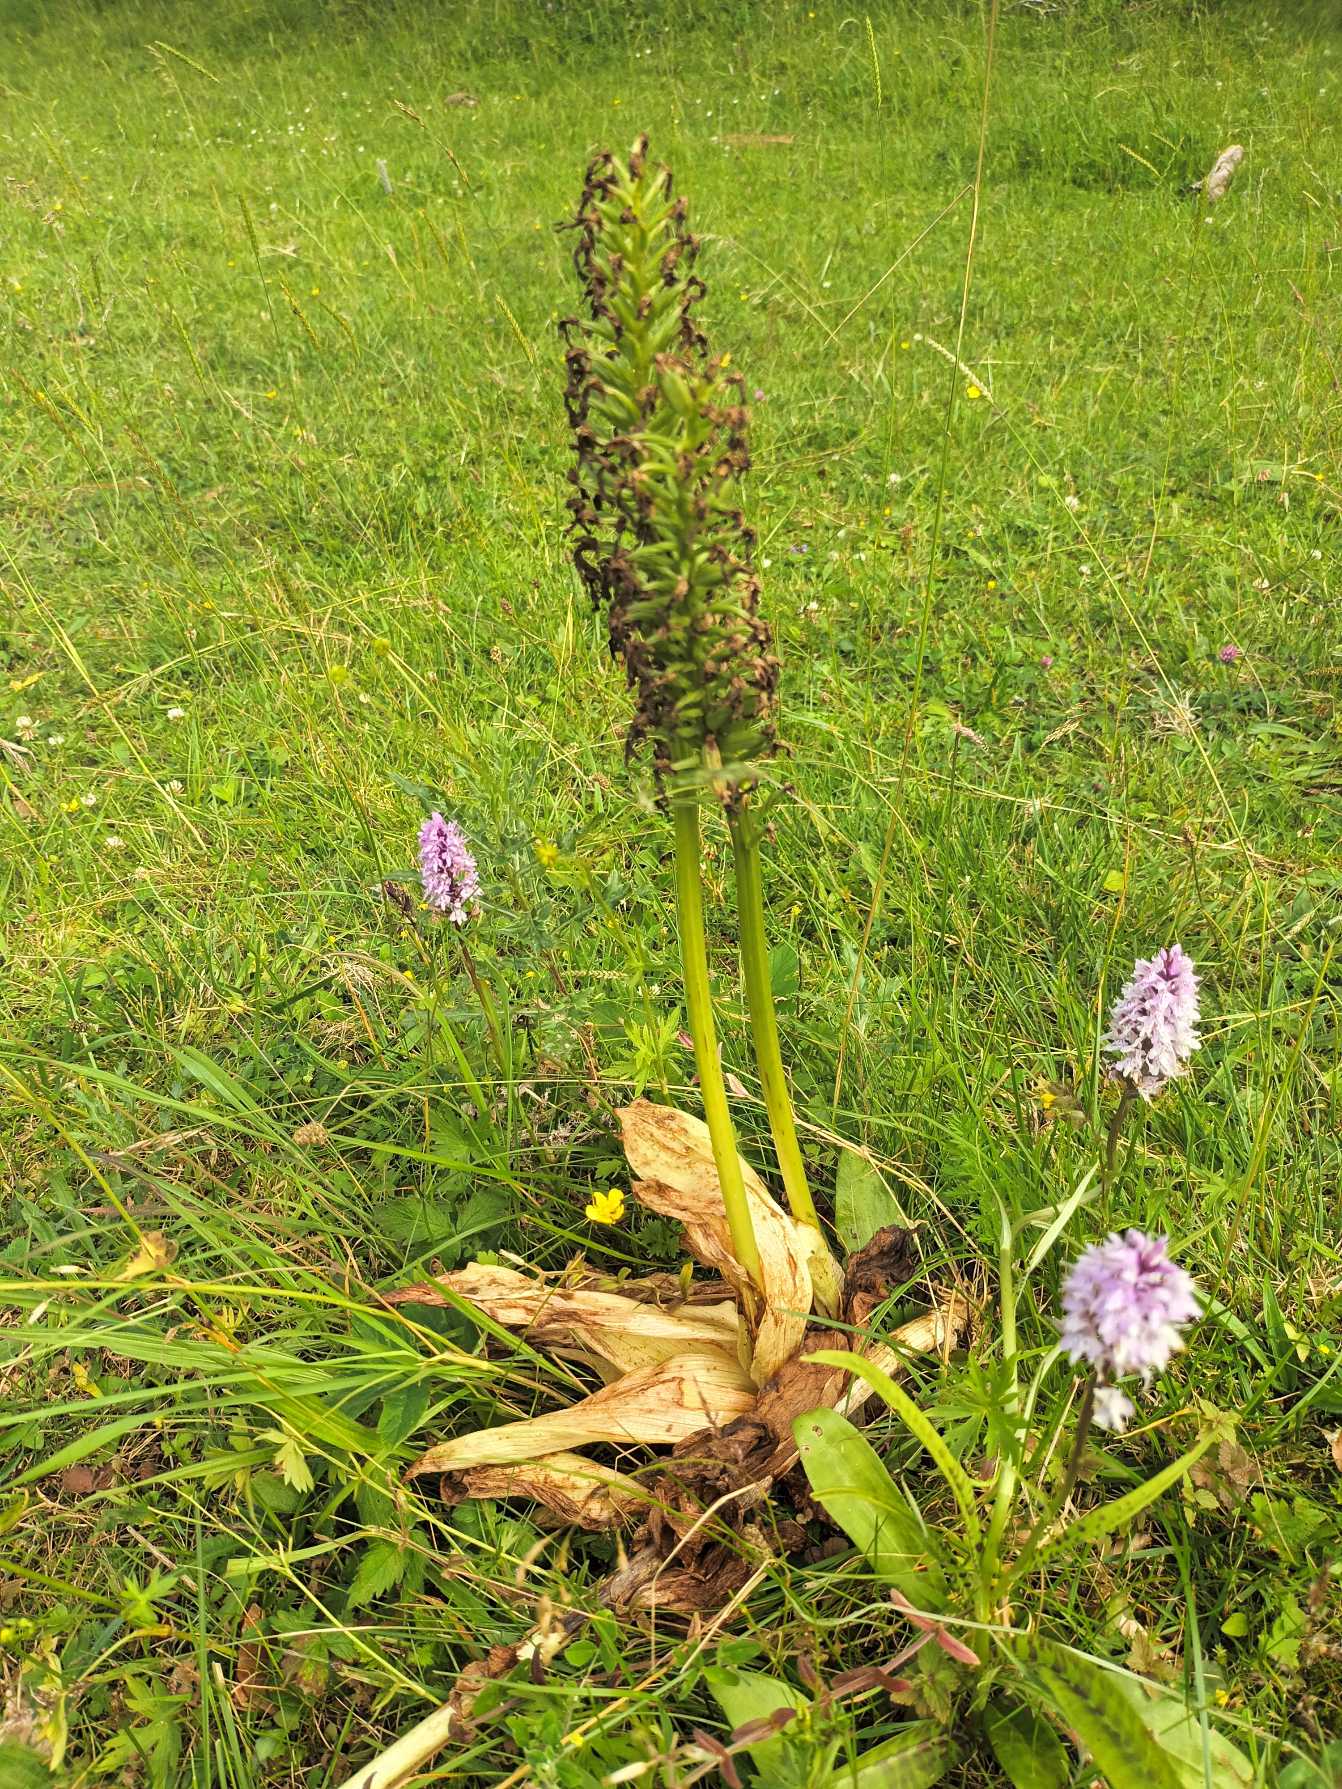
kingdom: Plantae
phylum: Tracheophyta
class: Liliopsida
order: Asparagales
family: Orchidaceae
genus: Orchis
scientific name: Orchis purpurea
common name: Stor gøgeurt
